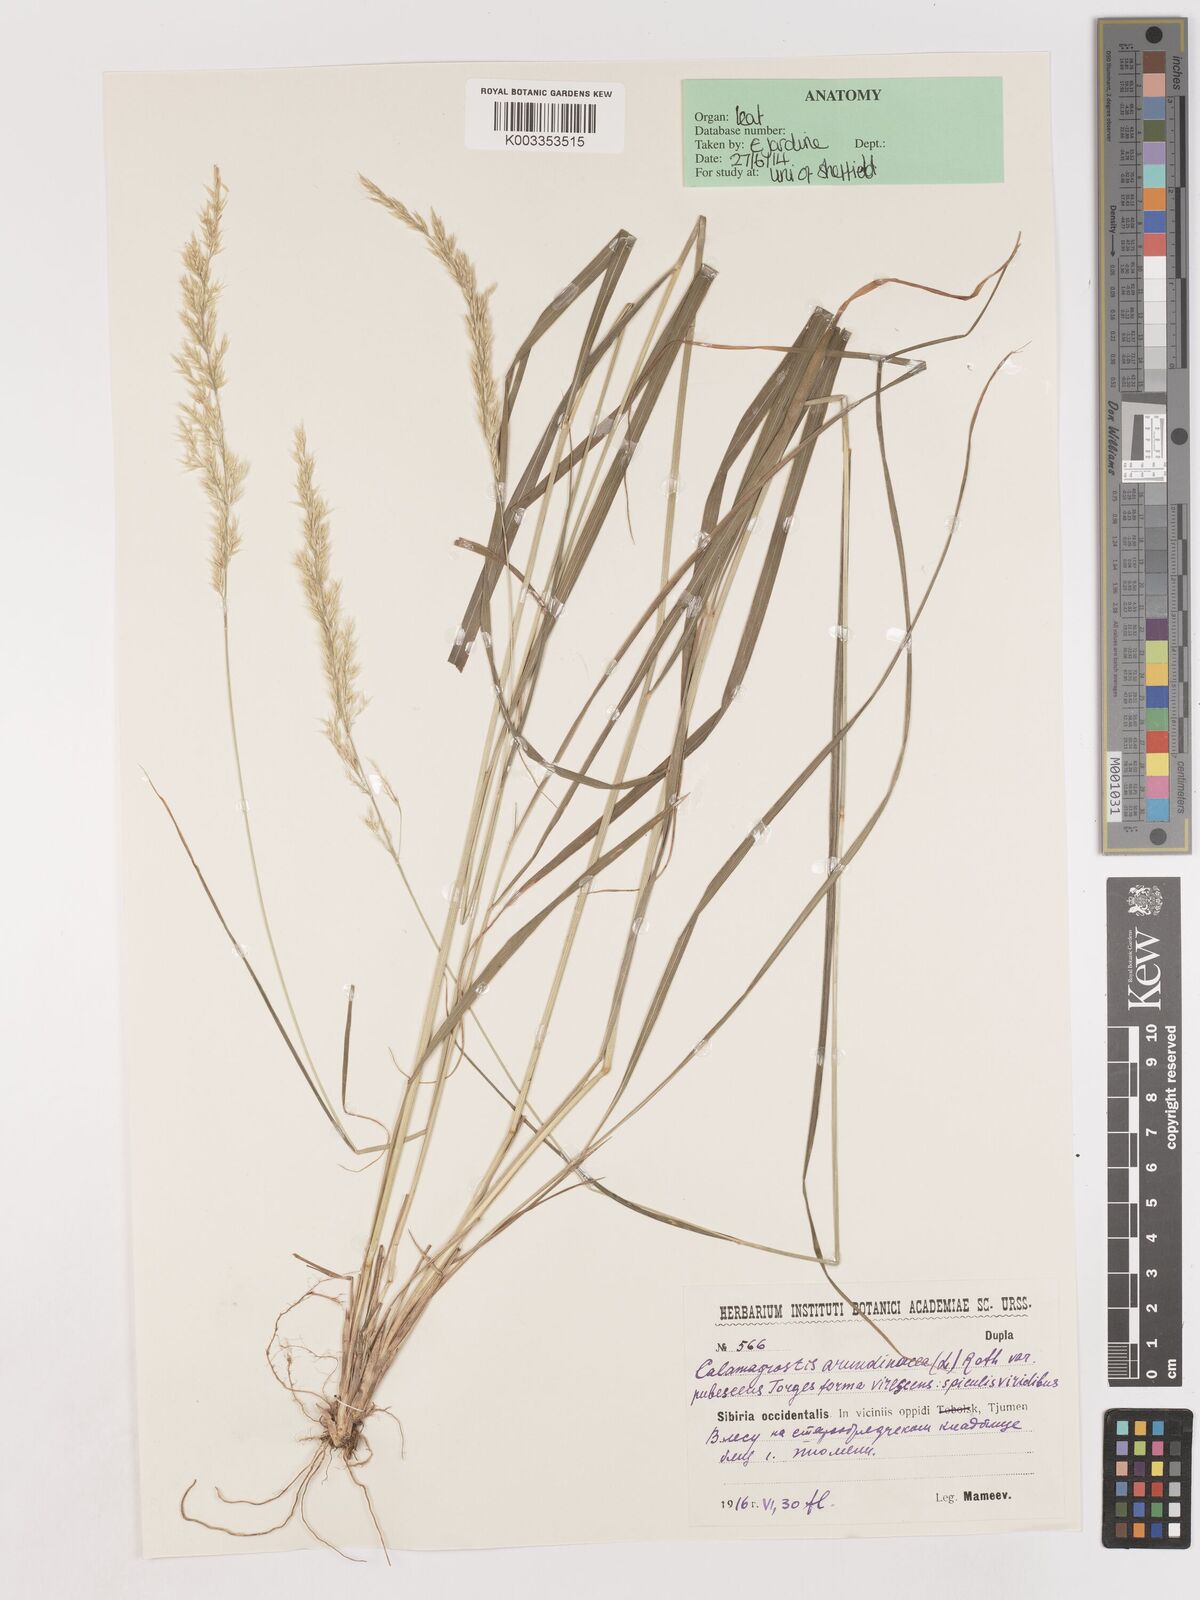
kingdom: Plantae
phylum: Tracheophyta
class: Liliopsida
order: Poales
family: Poaceae
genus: Calamagrostis
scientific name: Calamagrostis
